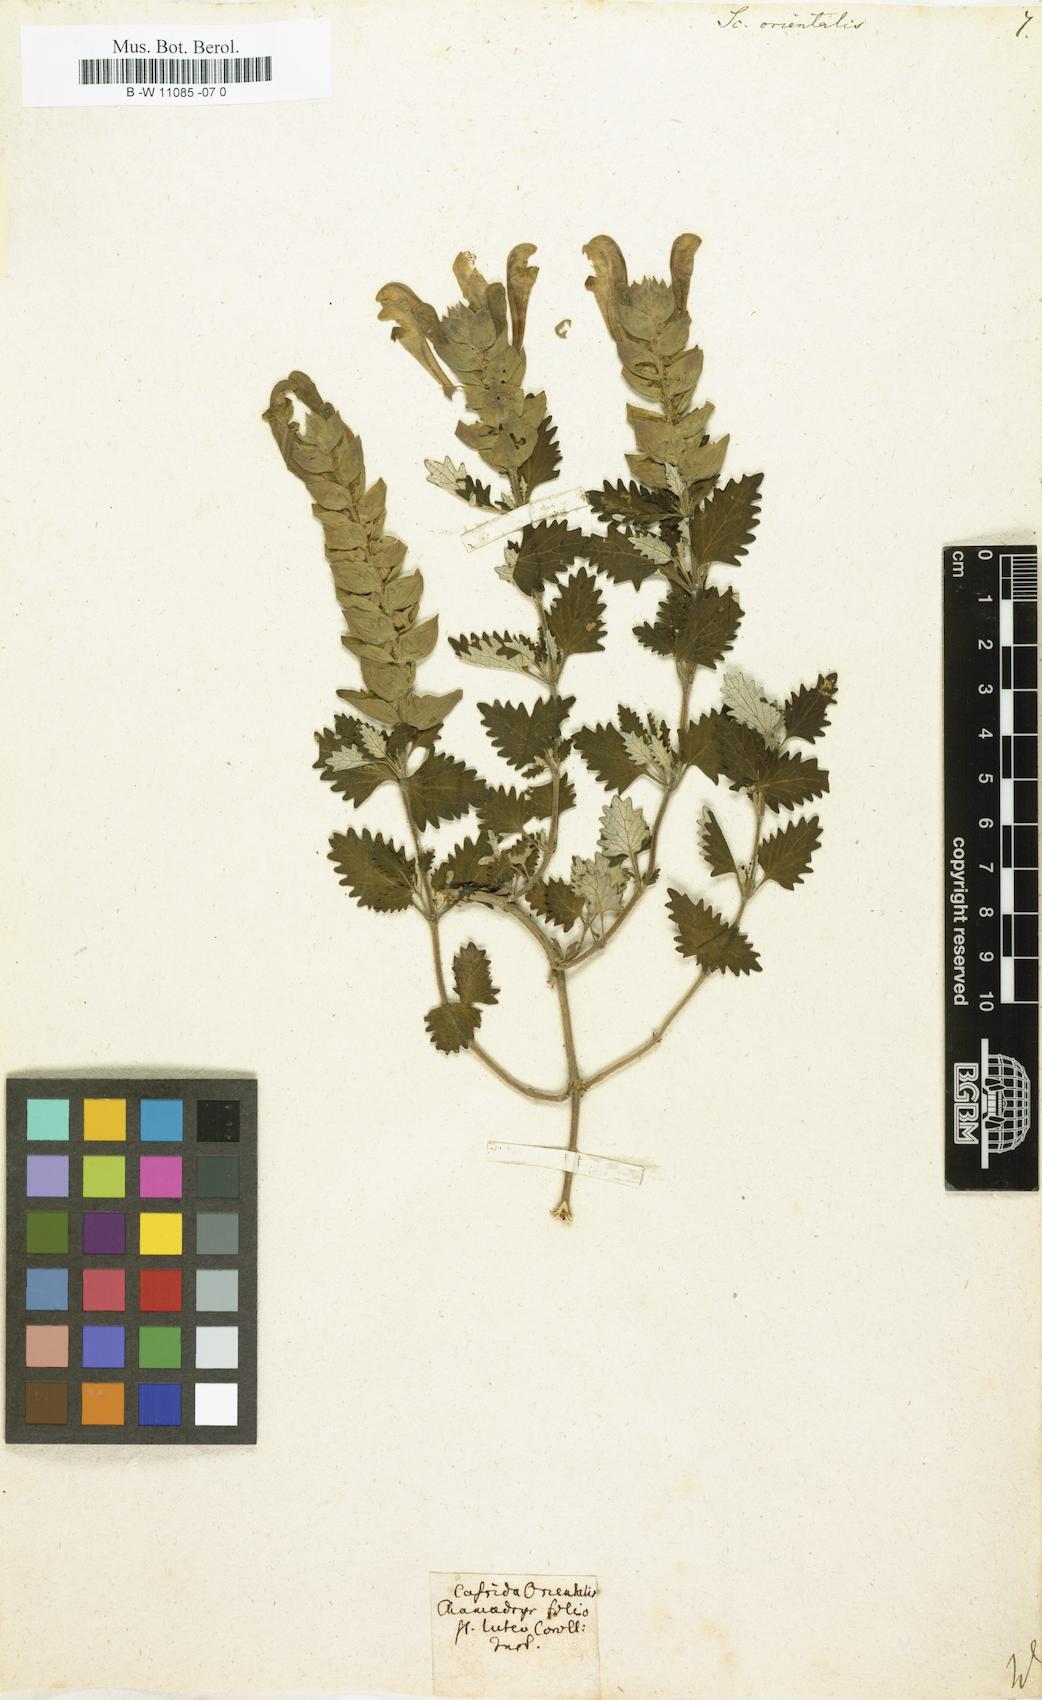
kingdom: Plantae
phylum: Tracheophyta
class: Magnoliopsida
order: Lamiales
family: Lamiaceae
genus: Scutellaria
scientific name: Scutellaria orientalis
